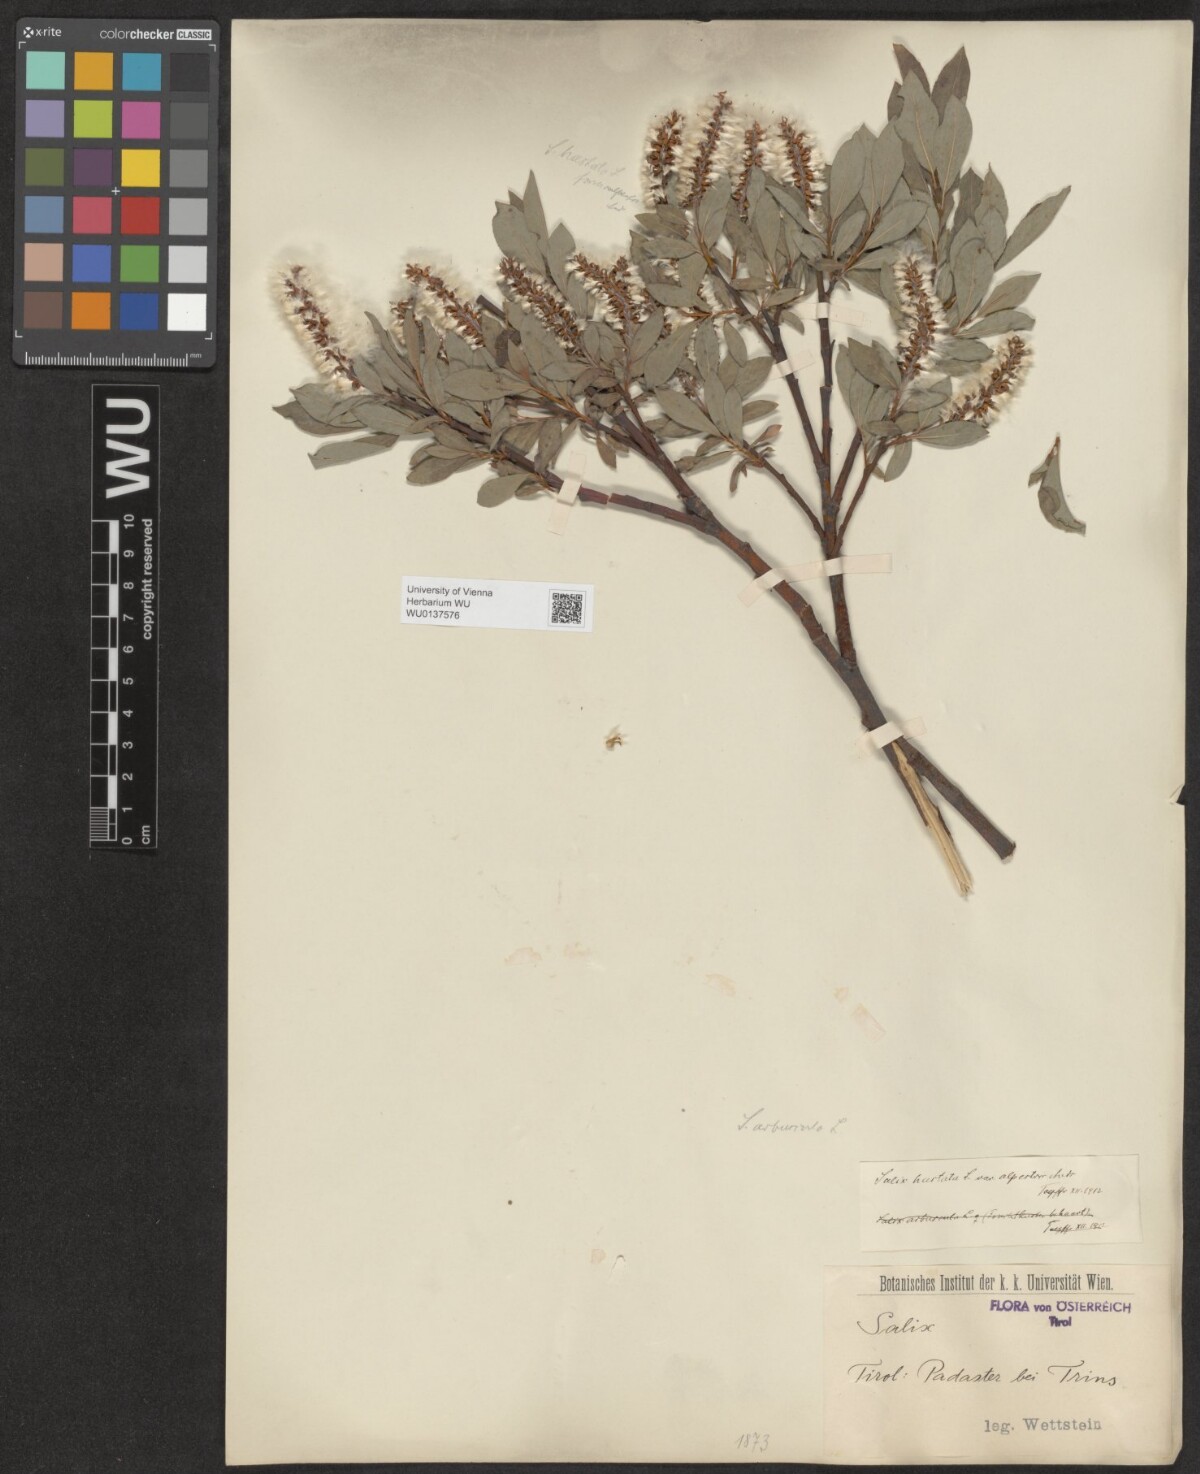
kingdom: Plantae
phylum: Tracheophyta
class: Magnoliopsida
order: Malpighiales
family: Salicaceae
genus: Salix
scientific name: Salix hastata
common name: Halberd willow
